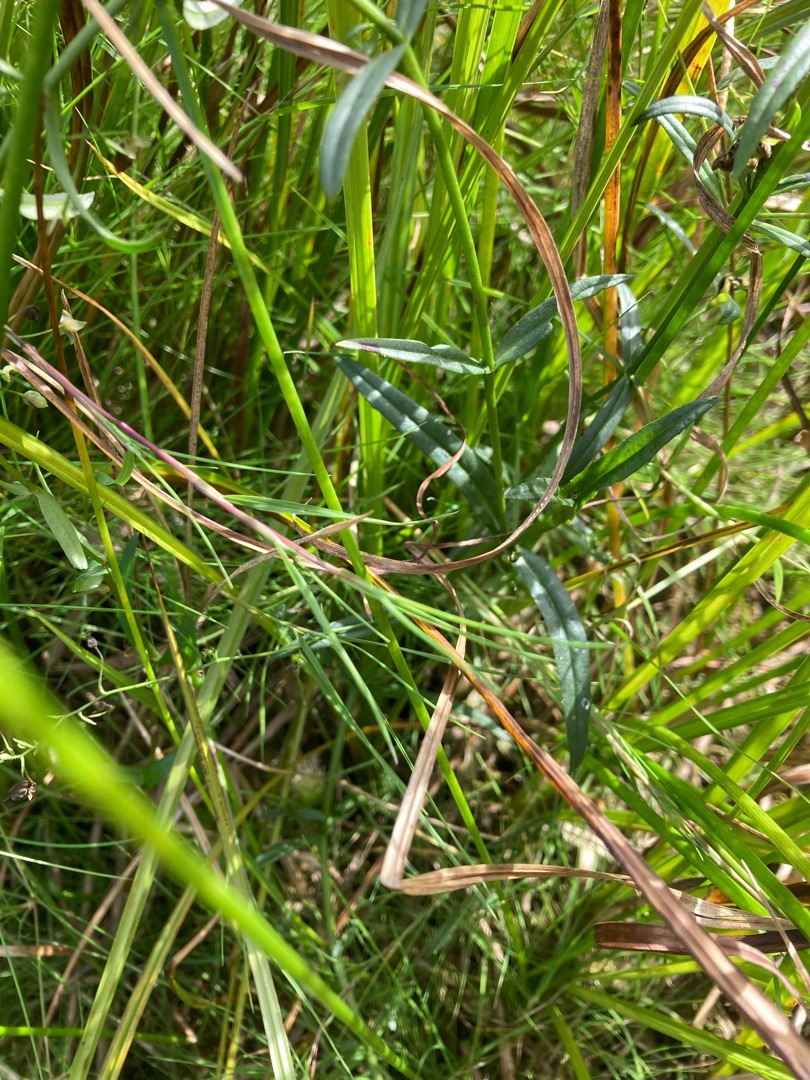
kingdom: Plantae
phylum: Tracheophyta
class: Magnoliopsida
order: Lamiales
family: Plantaginaceae
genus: Veronica
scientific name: Veronica scutellata
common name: Smalbladet ærenpris
